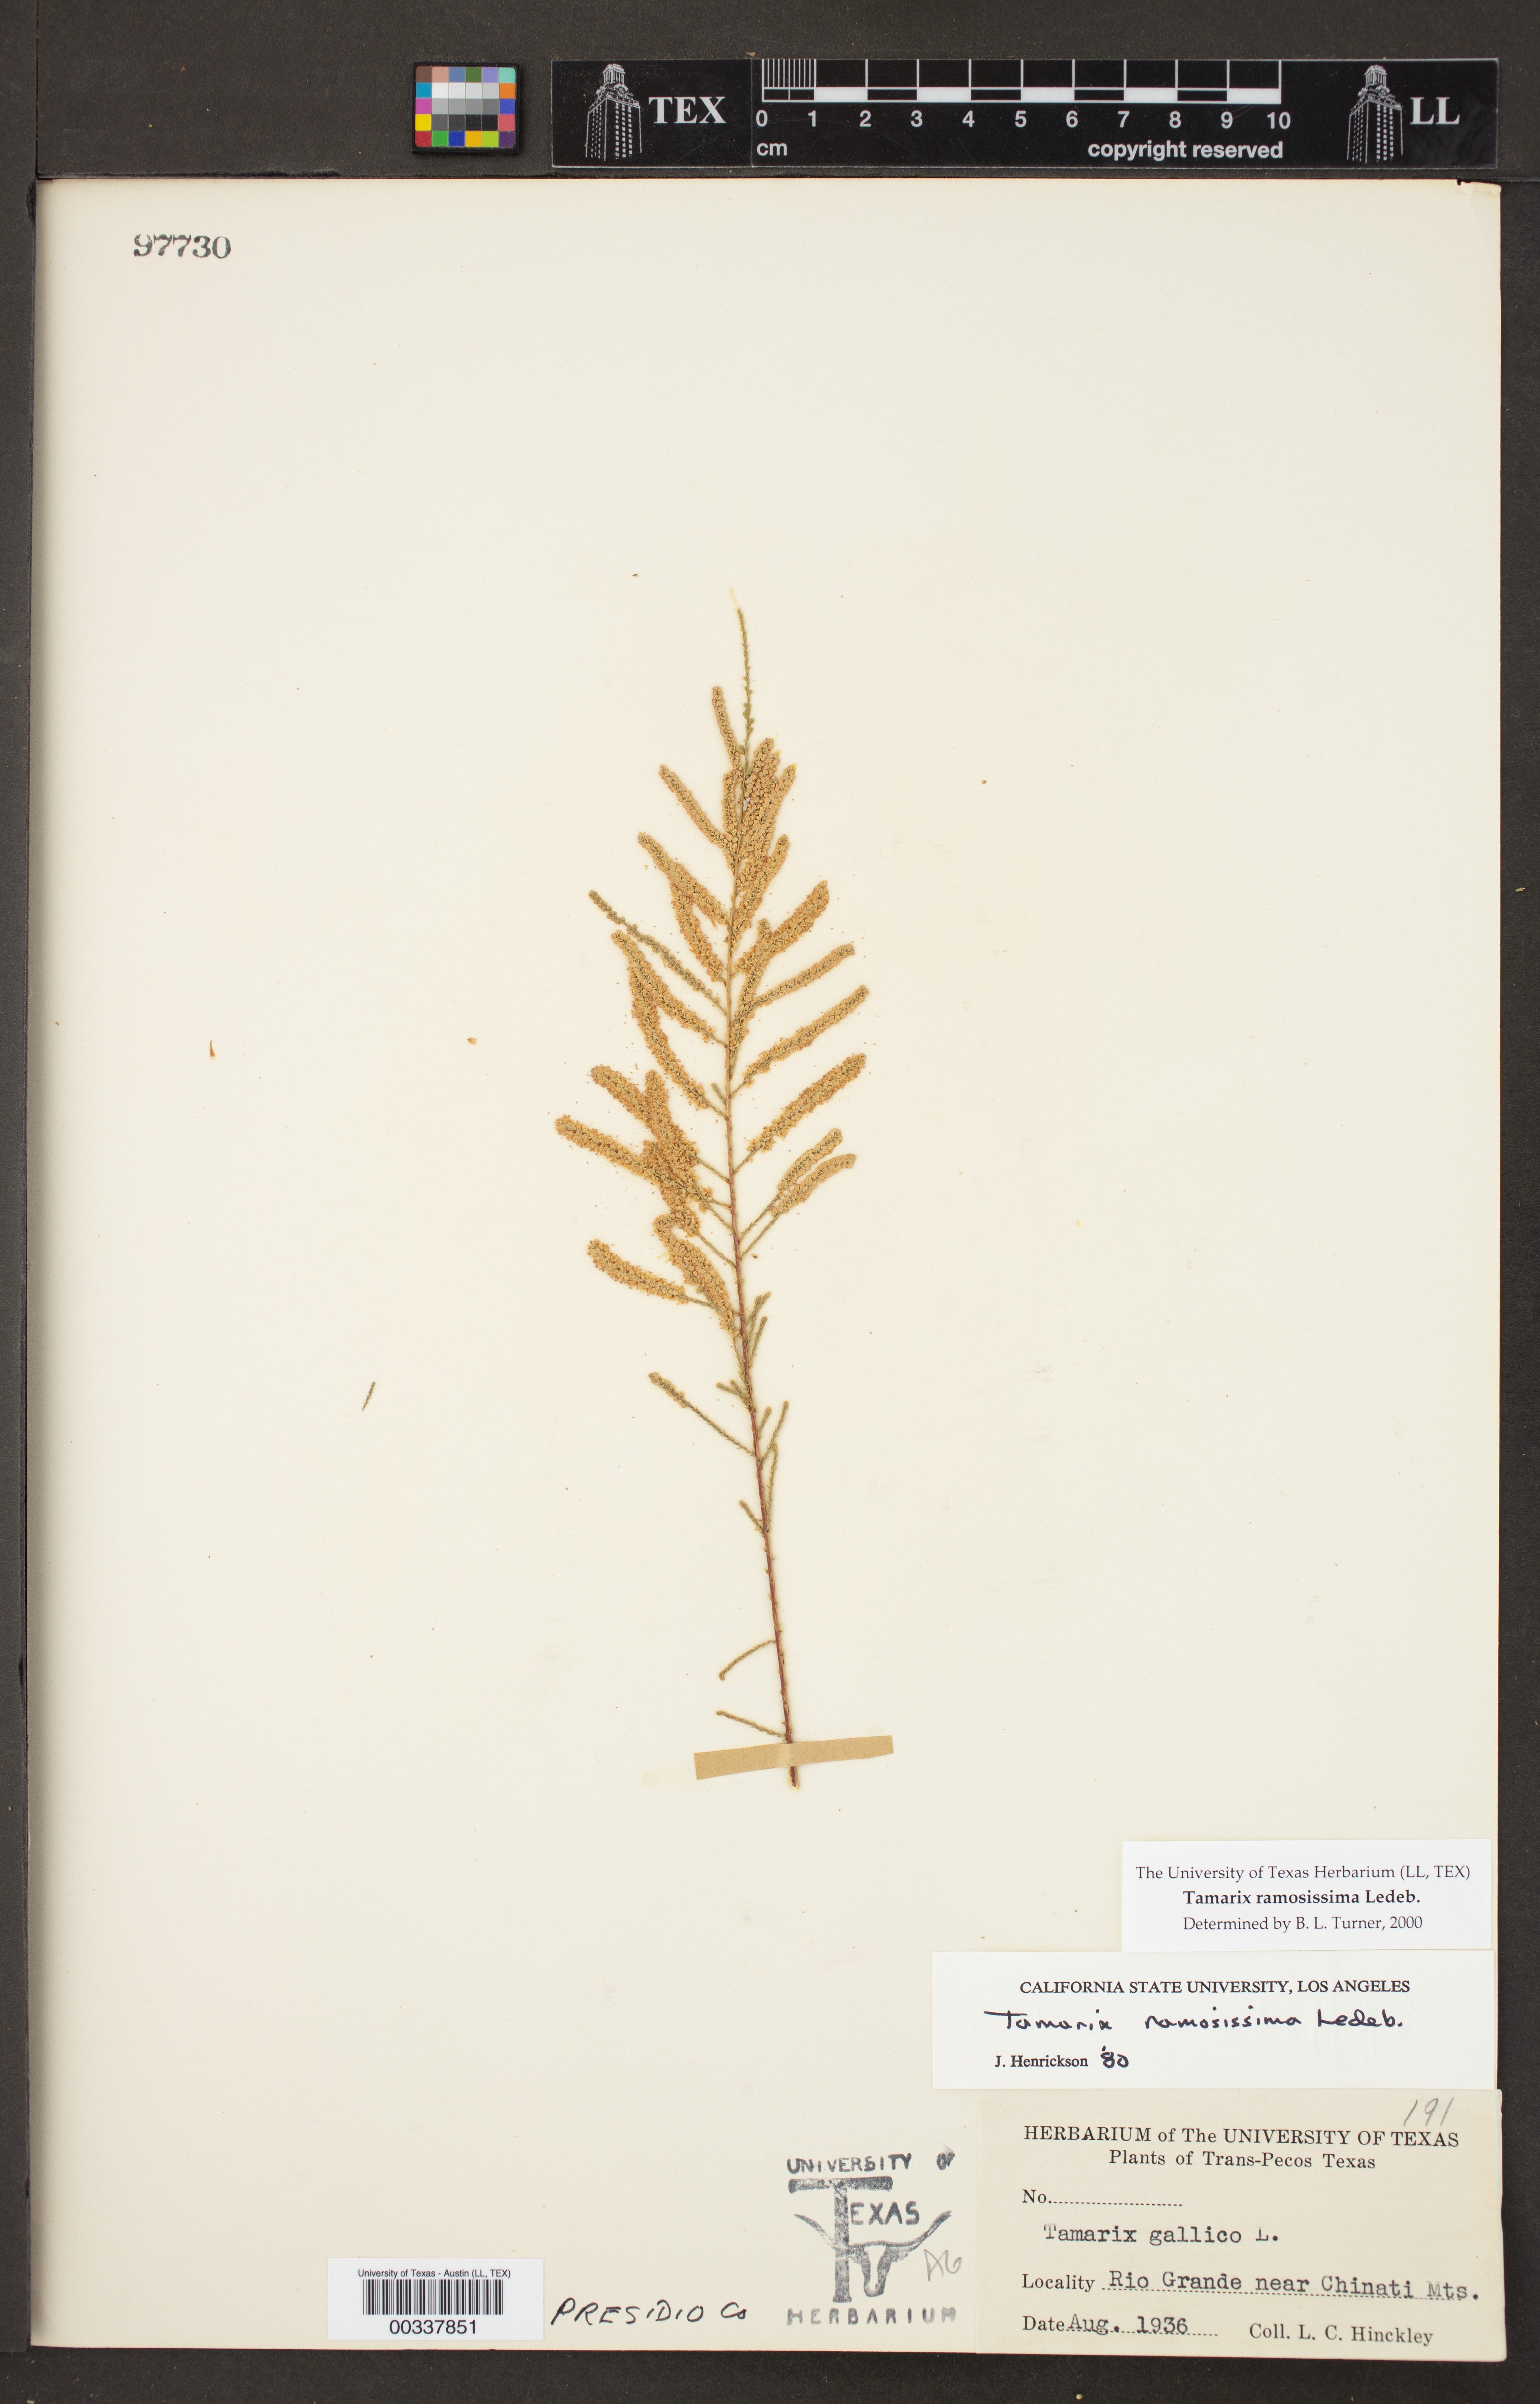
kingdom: Plantae
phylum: Tracheophyta
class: Magnoliopsida
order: Caryophyllales
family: Tamaricaceae
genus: Tamarix
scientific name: Tamarix ramosissima
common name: Pink tamarisk
